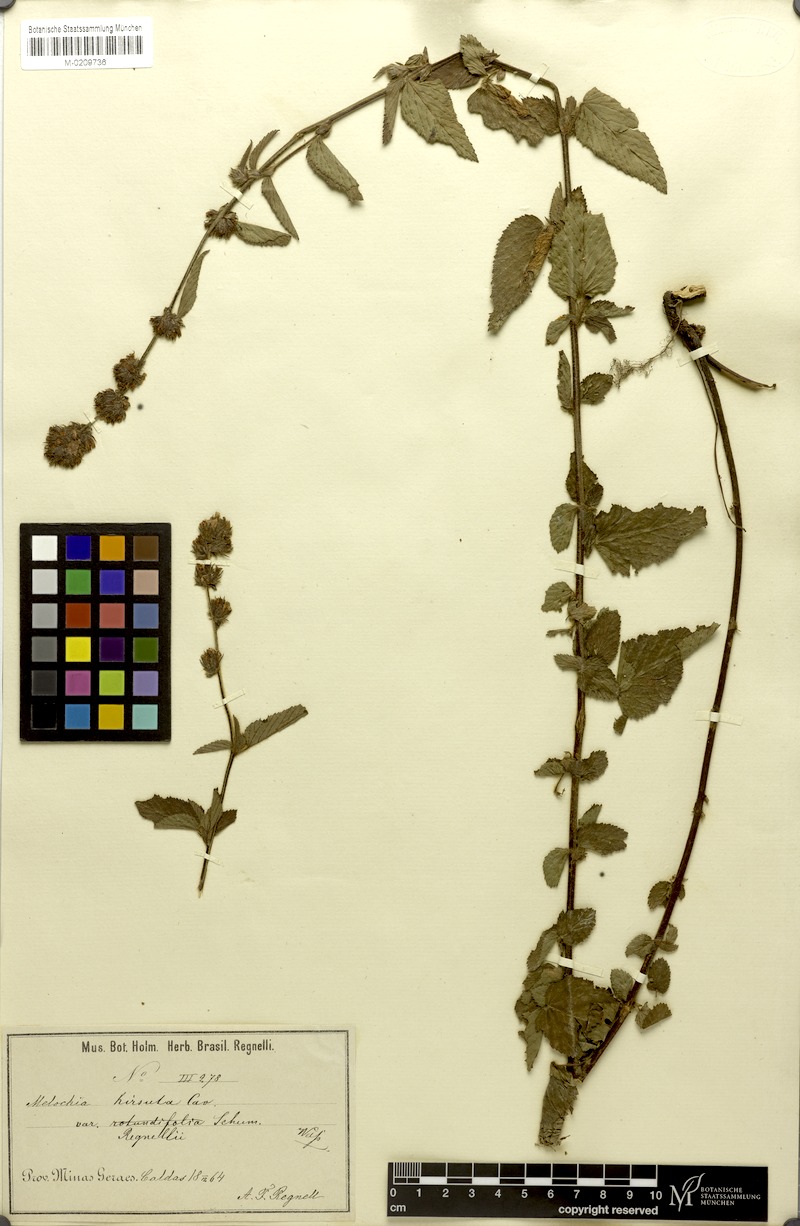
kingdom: Plantae
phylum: Tracheophyta
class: Magnoliopsida
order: Malvales
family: Malvaceae
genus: Melochia
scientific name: Melochia spicata
